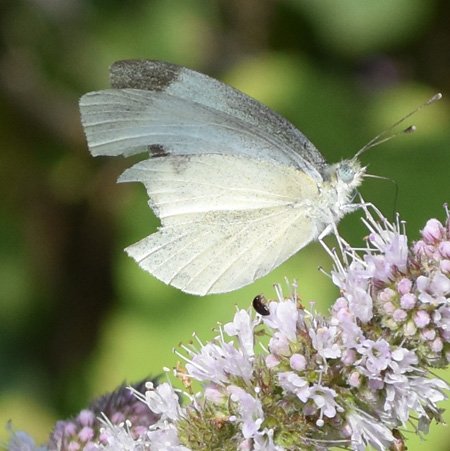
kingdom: Animalia
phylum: Arthropoda
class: Insecta
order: Lepidoptera
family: Pieridae
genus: Pieris
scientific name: Pieris rapae
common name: Cabbage White
